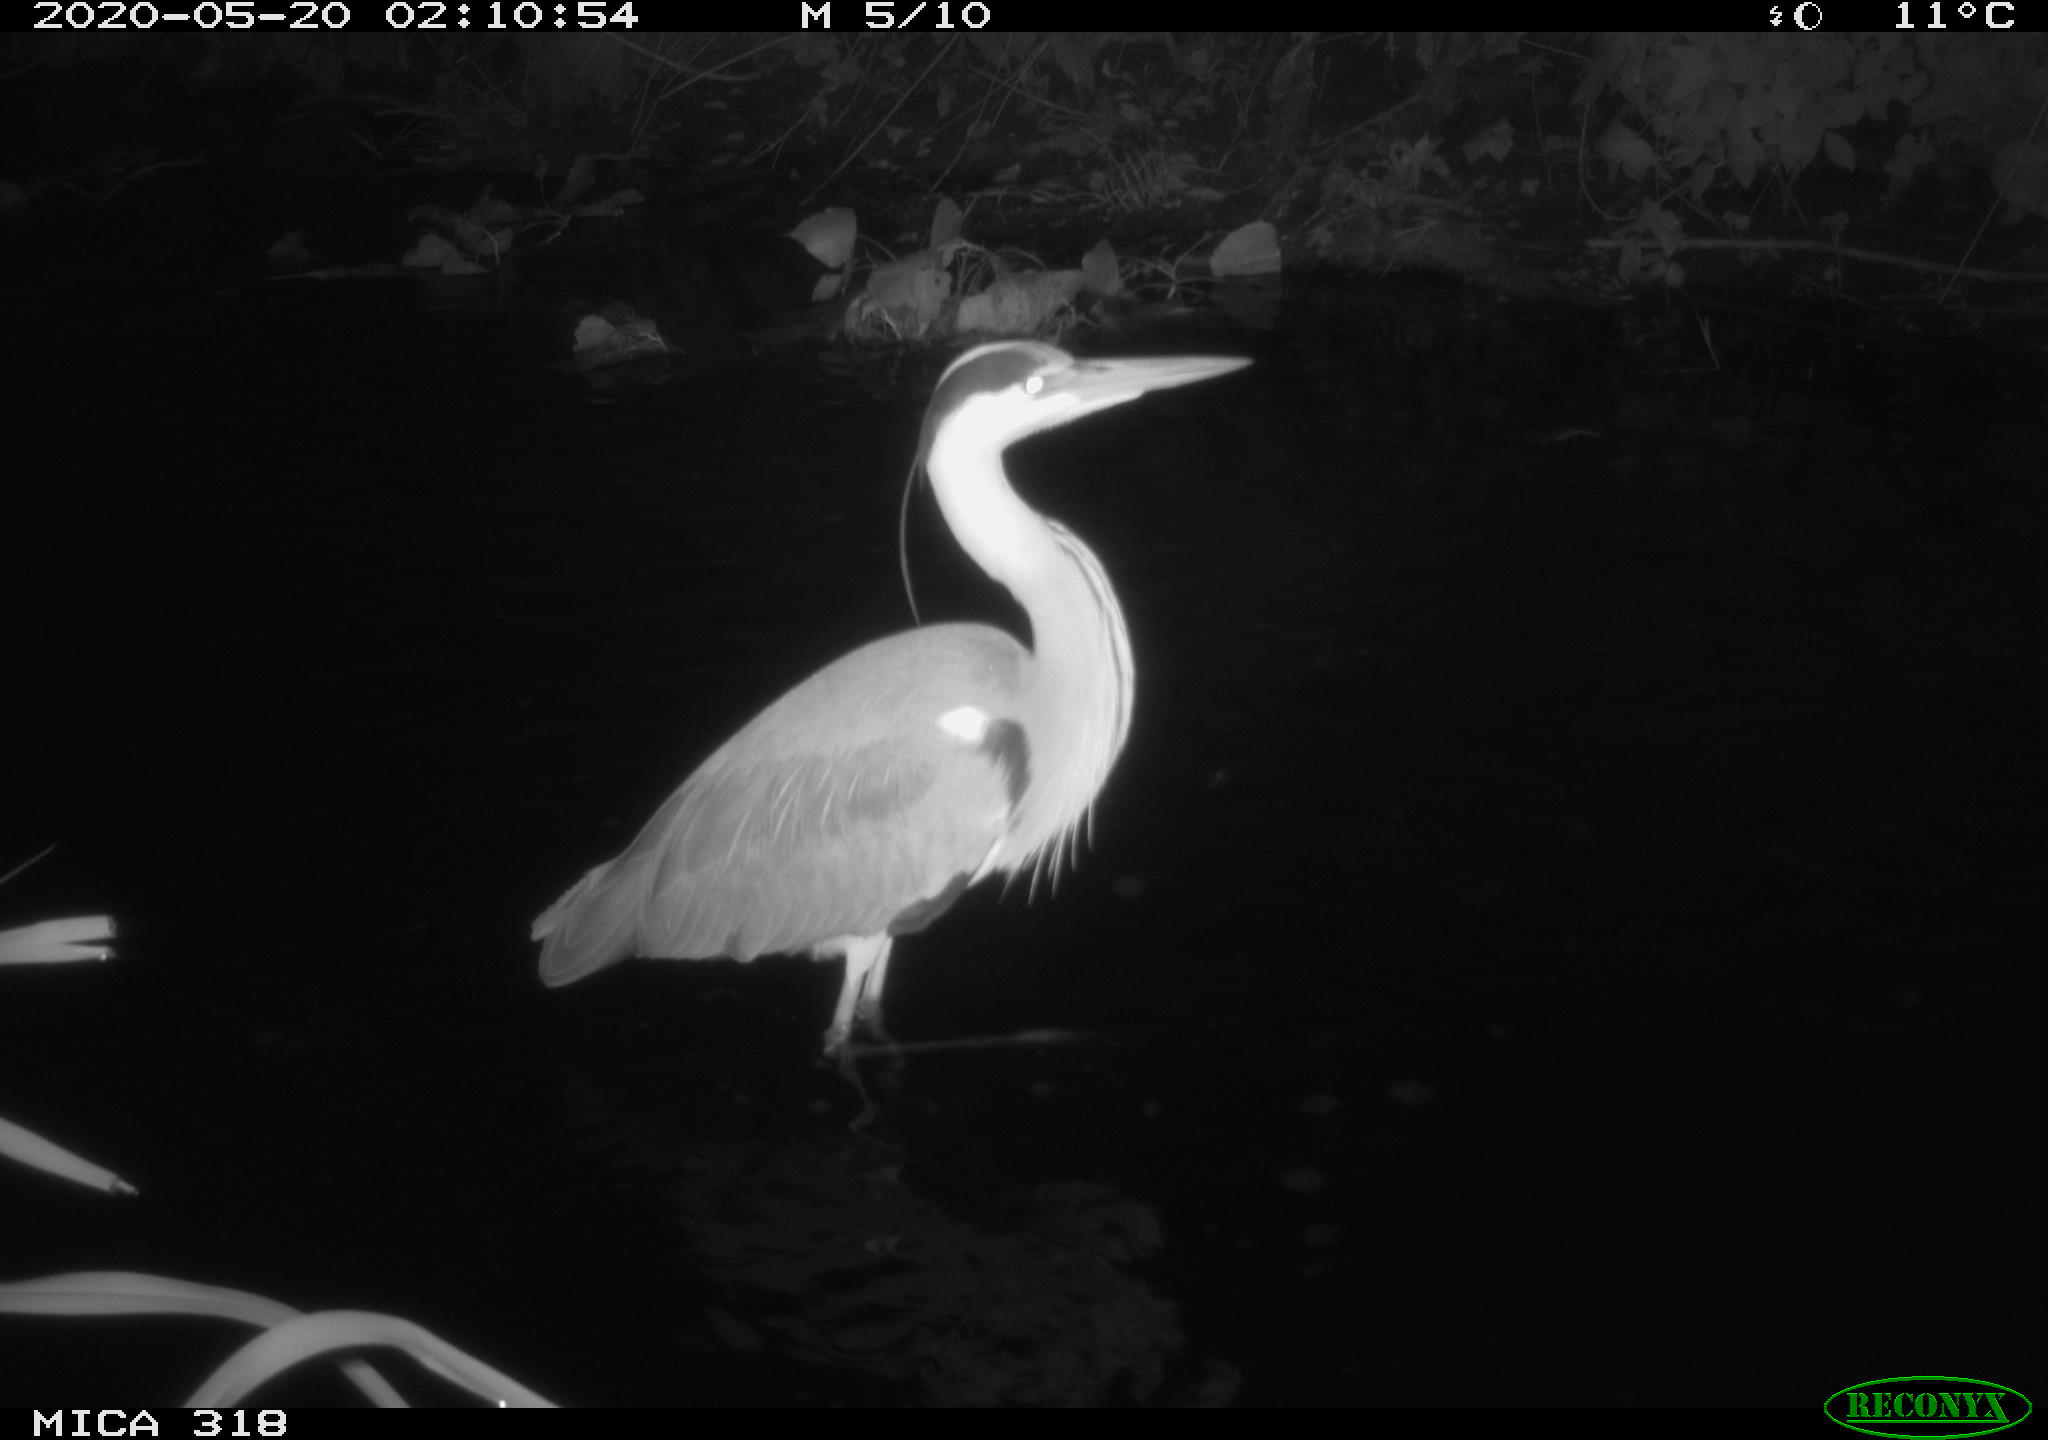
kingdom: Animalia
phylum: Chordata
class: Aves
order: Pelecaniformes
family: Ardeidae
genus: Ardea
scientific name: Ardea cinerea
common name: Grey heron
